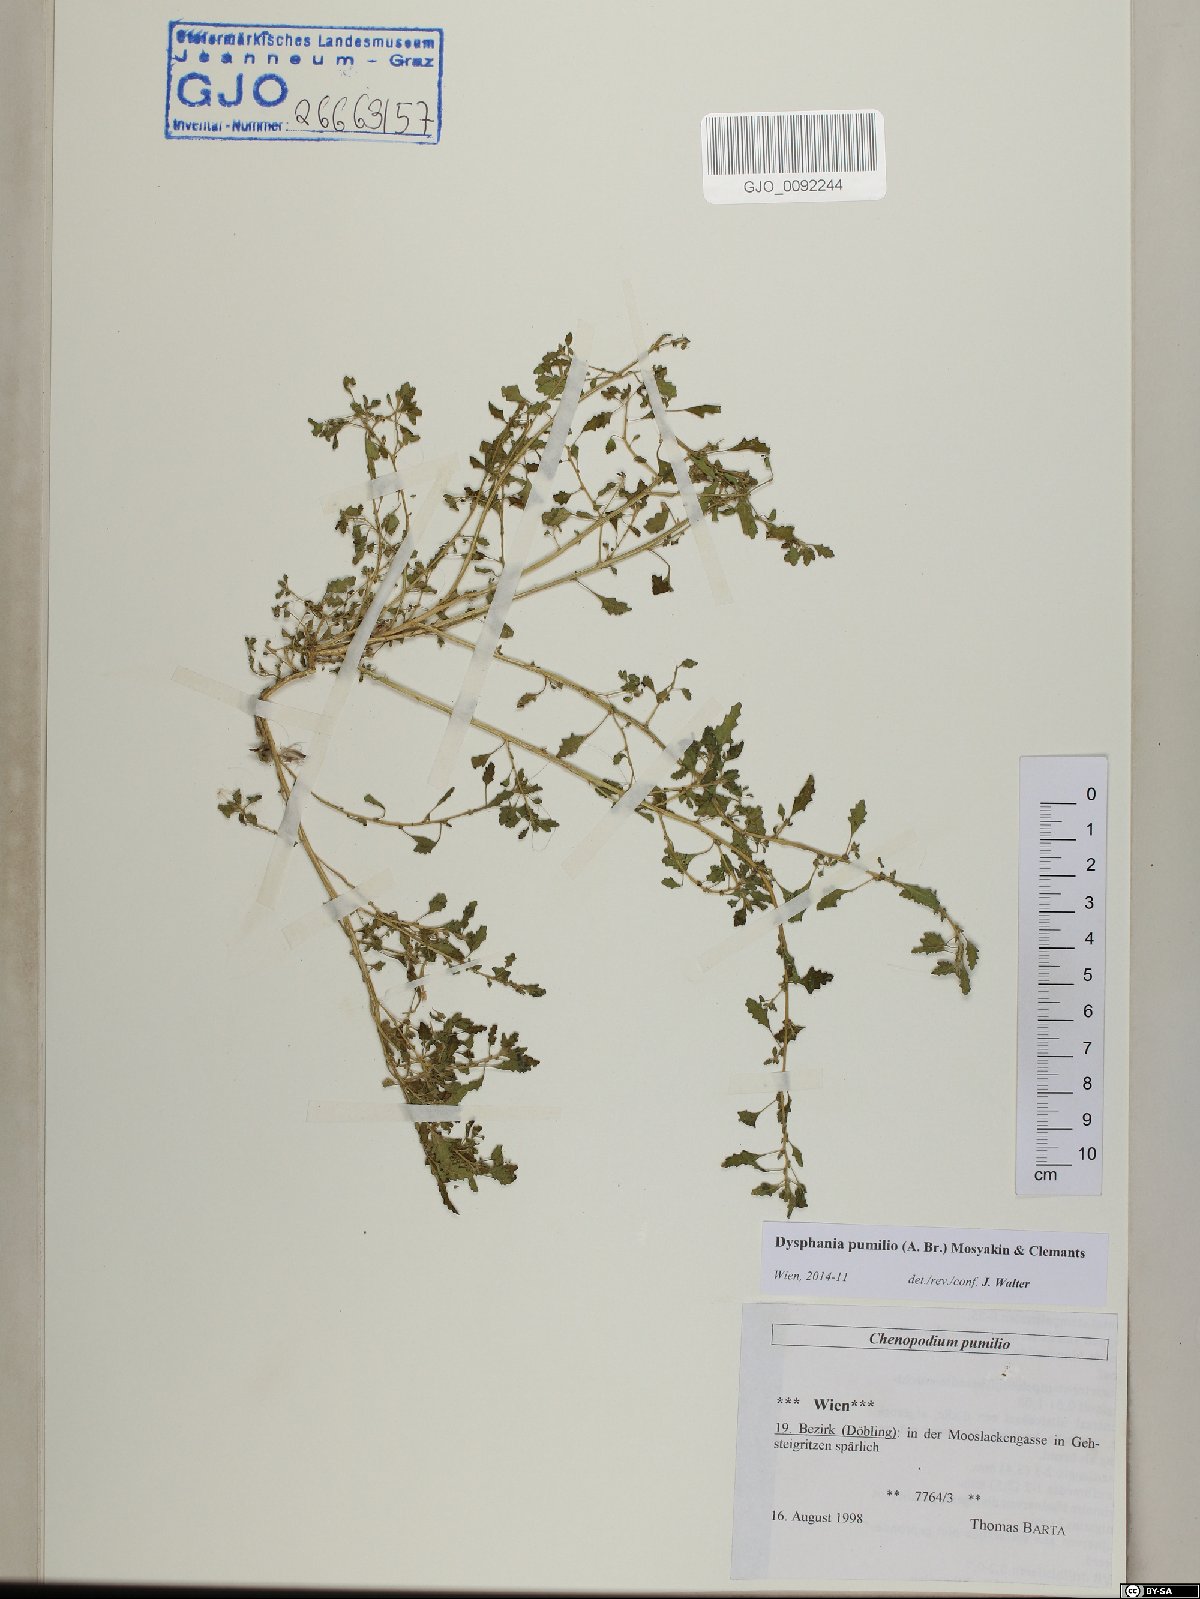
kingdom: Plantae
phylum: Tracheophyta
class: Magnoliopsida
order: Caryophyllales
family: Amaranthaceae
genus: Dysphania
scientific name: Dysphania pumilio
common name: Clammy goosefoot
